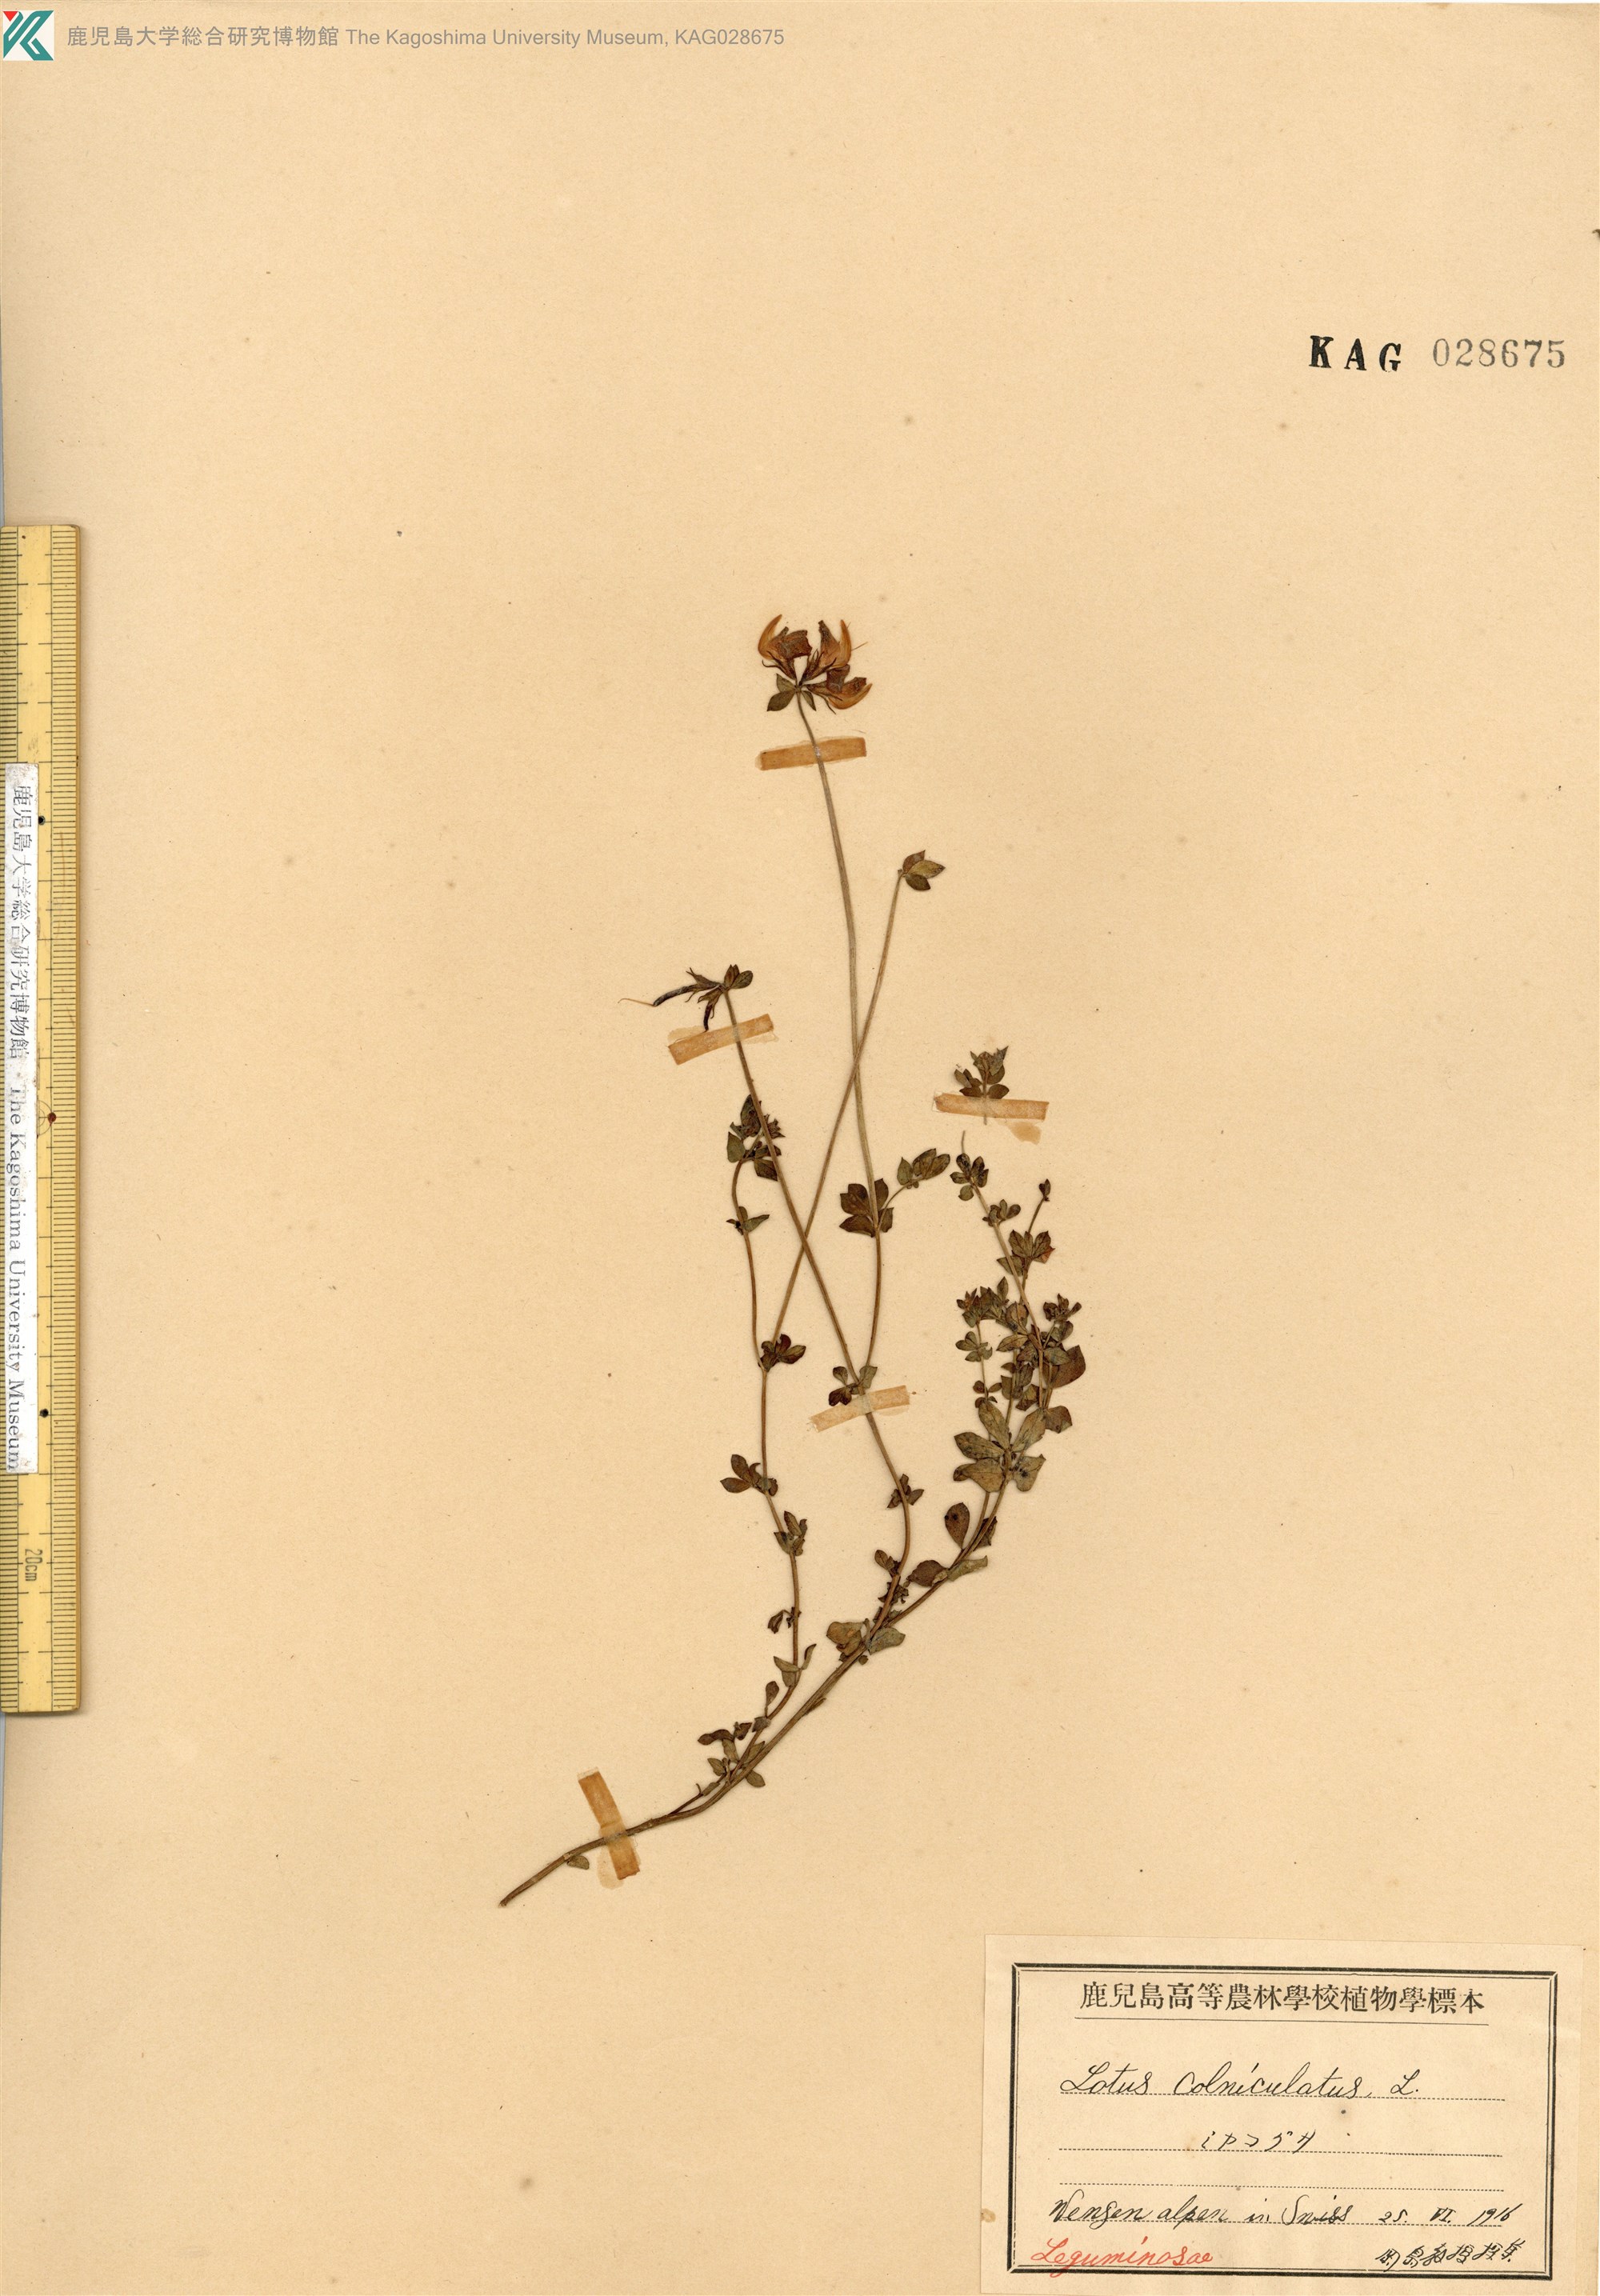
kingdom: Plantae
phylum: Tracheophyta
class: Magnoliopsida
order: Fabales
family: Fabaceae
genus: Lotus
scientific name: Lotus corniculatus
